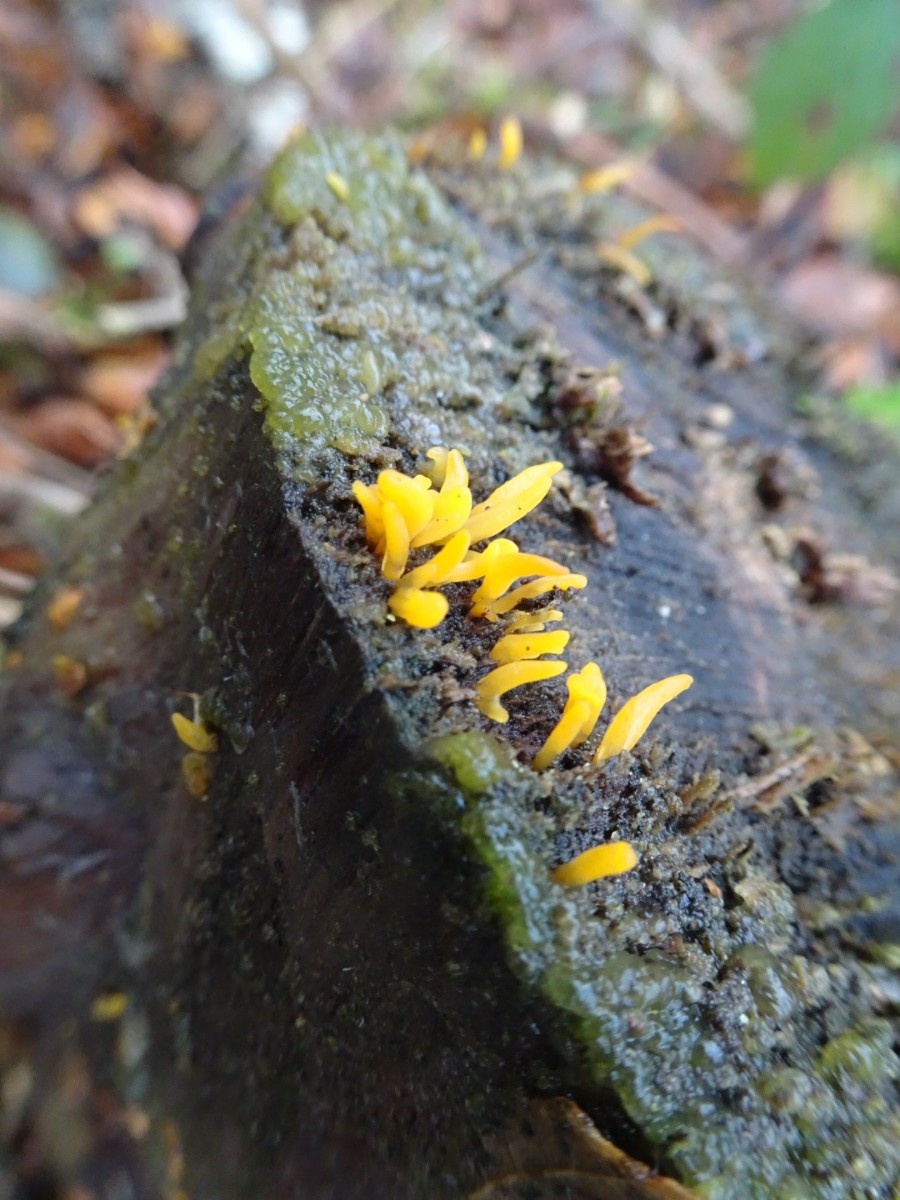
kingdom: Fungi
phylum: Basidiomycota
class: Dacrymycetes
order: Dacrymycetales
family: Dacrymycetaceae
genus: Calocera
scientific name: Calocera furcata
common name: fyrre-guldgaffel
